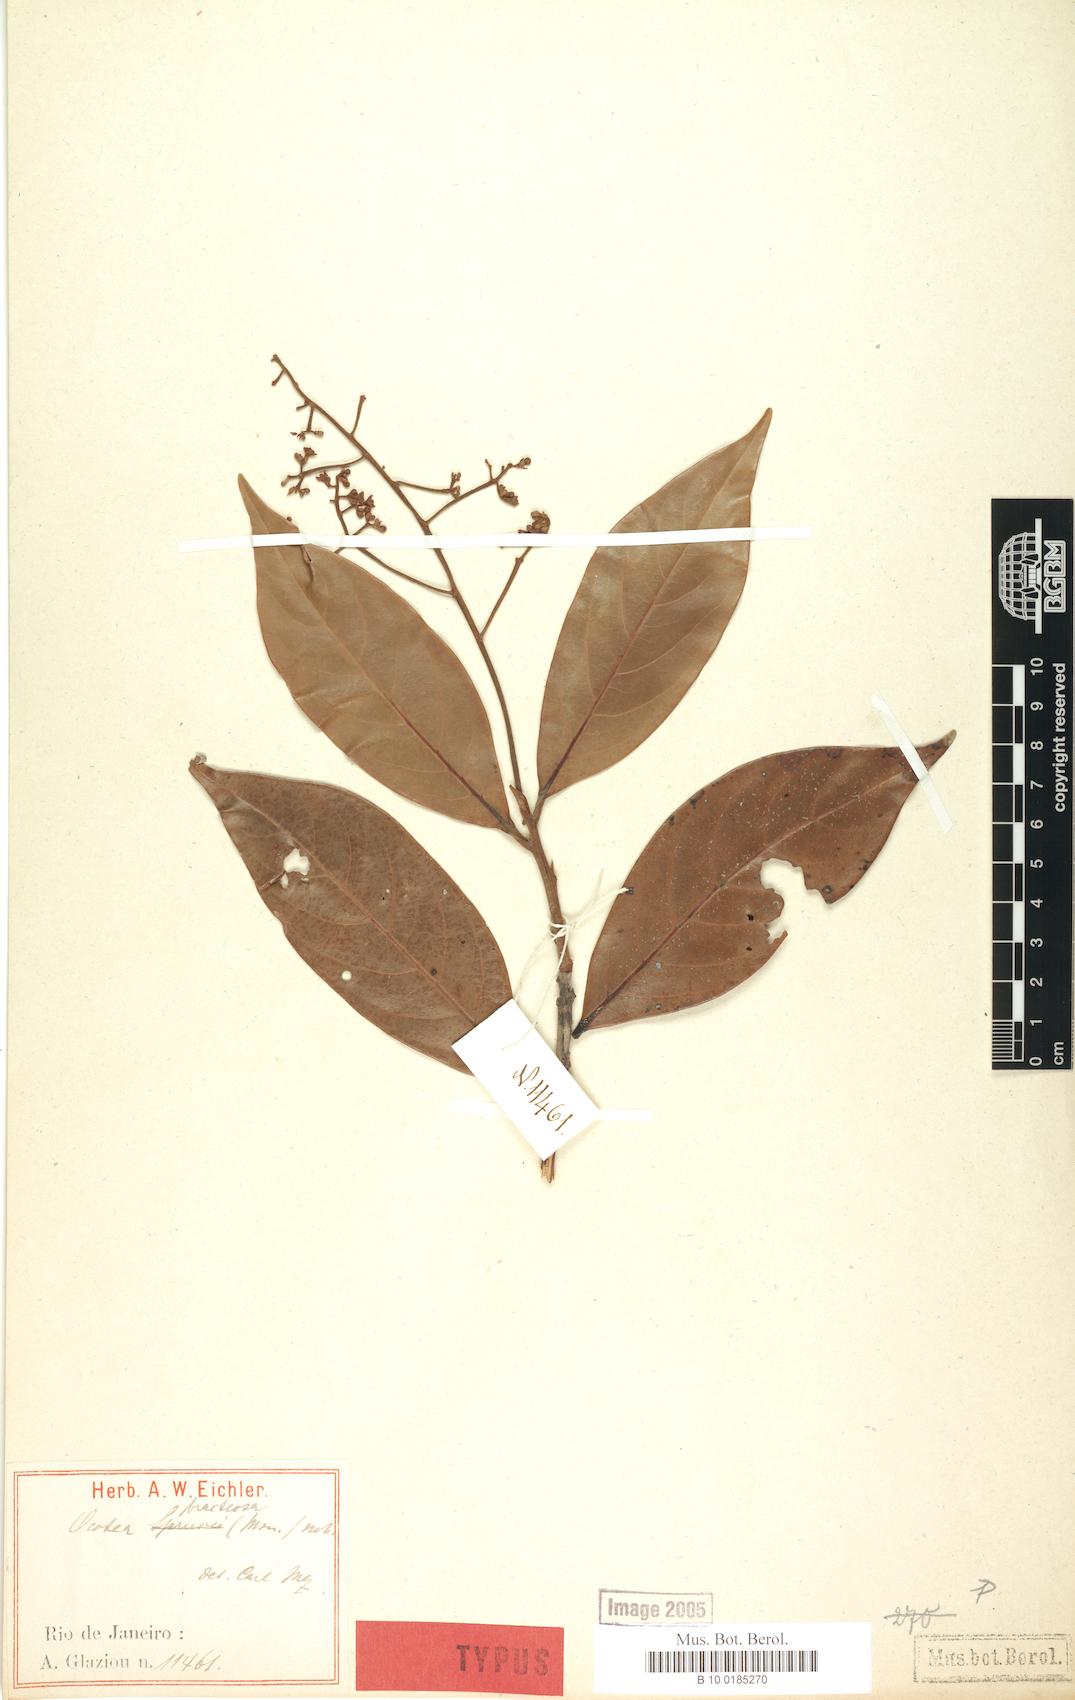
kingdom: Plantae
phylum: Tracheophyta
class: Magnoliopsida
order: Laurales
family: Lauraceae
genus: Ocotea
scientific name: Ocotea bracteosa
